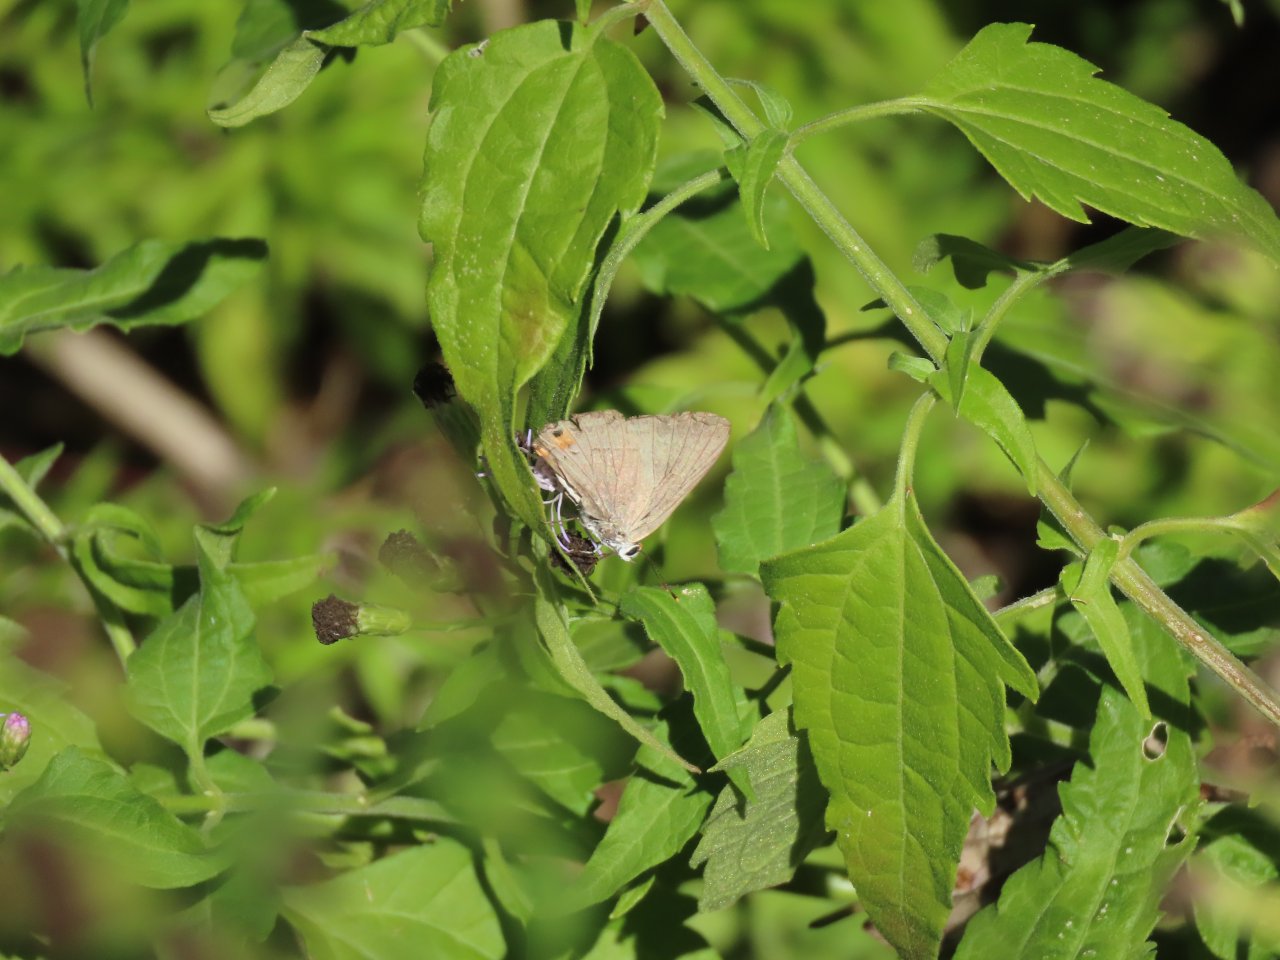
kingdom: Animalia
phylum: Arthropoda
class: Insecta
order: Lepidoptera
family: Lycaenidae
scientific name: Lycaenidae
